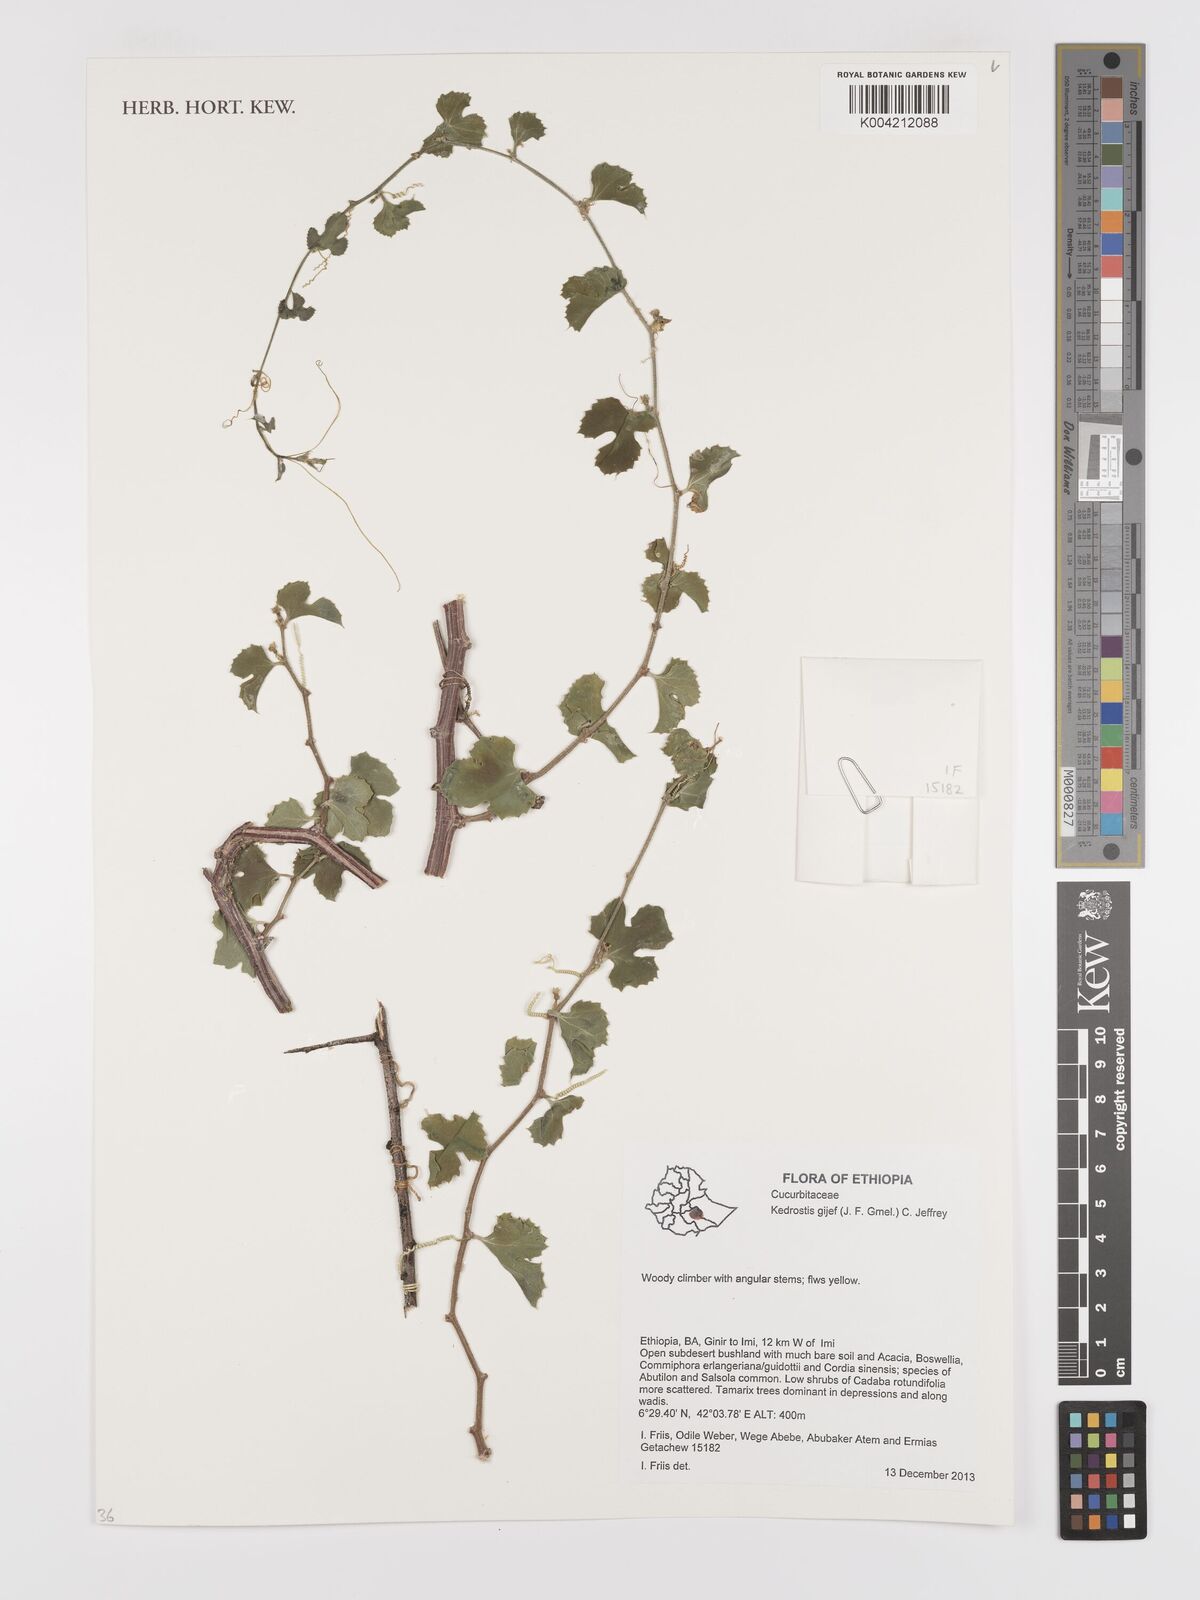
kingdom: Plantae
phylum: Tracheophyta
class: Magnoliopsida
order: Cucurbitales
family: Cucurbitaceae
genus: Kedrostis
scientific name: Kedrostis gijef
